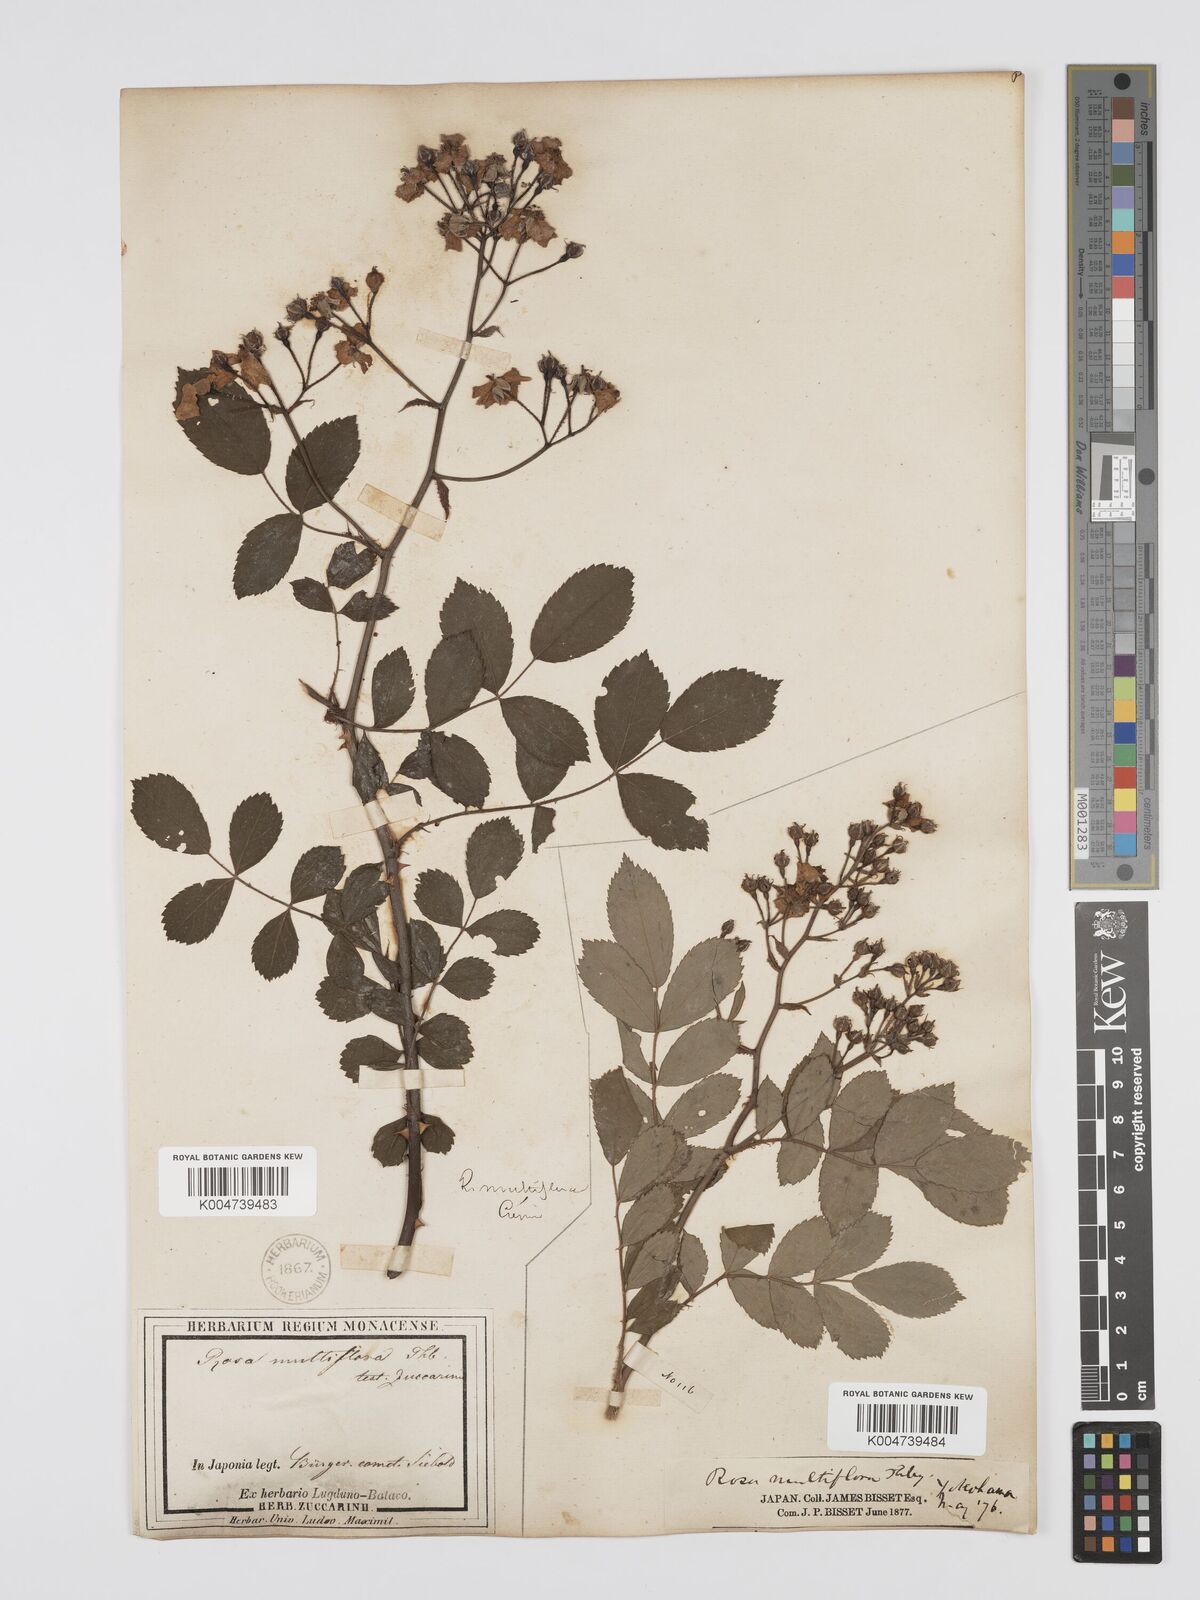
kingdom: Plantae
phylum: Tracheophyta
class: Magnoliopsida
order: Rosales
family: Rosaceae
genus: Rosa
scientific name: Rosa
